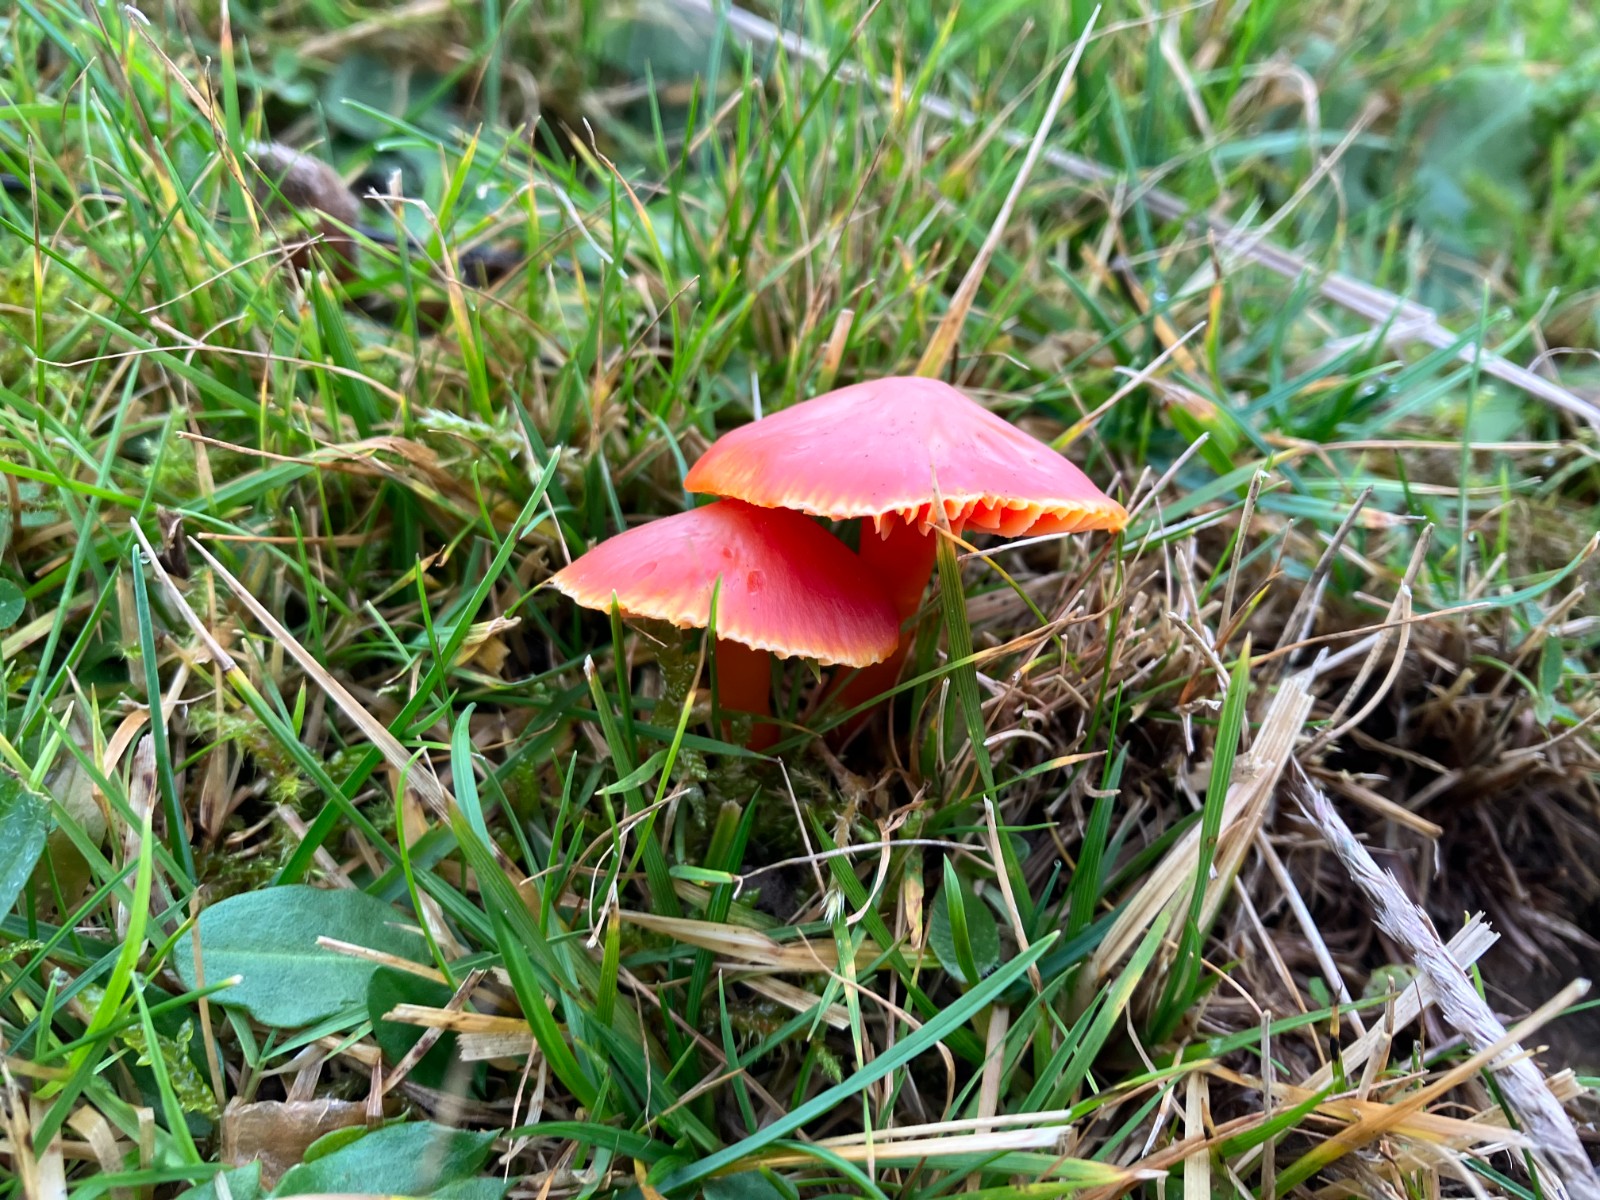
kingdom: Fungi
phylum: Basidiomycota
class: Agaricomycetes
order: Agaricales
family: Hygrophoraceae
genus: Hygrocybe
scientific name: Hygrocybe coccinea
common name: cinnober-vokshat
